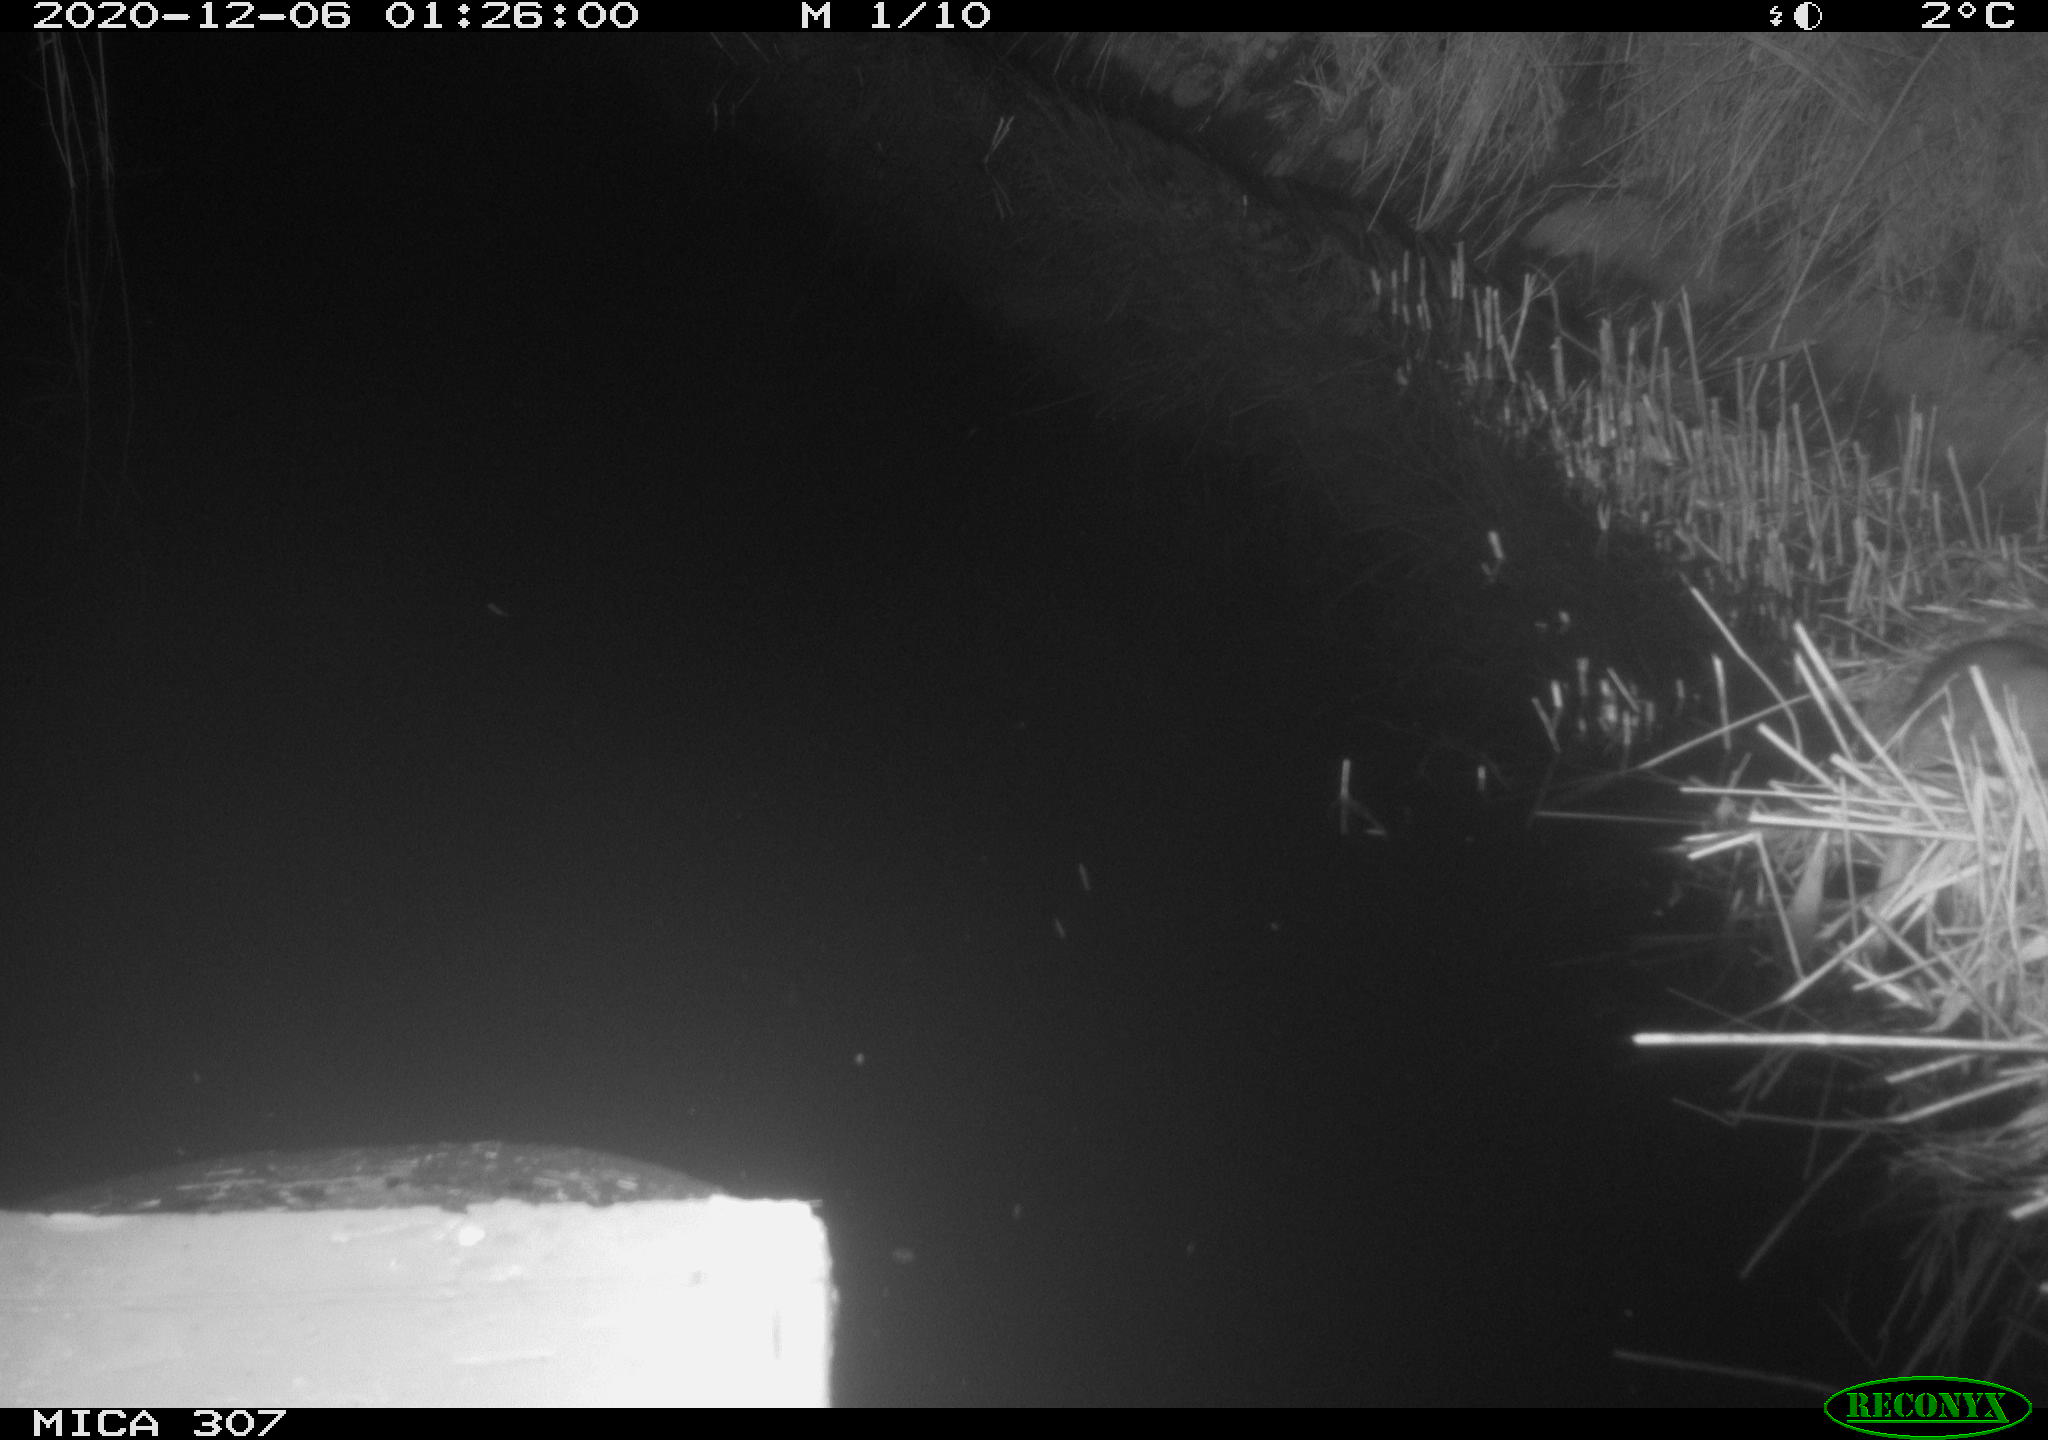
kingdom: Animalia
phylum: Chordata
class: Mammalia
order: Rodentia
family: Muridae
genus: Rattus
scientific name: Rattus norvegicus
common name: Brown rat
